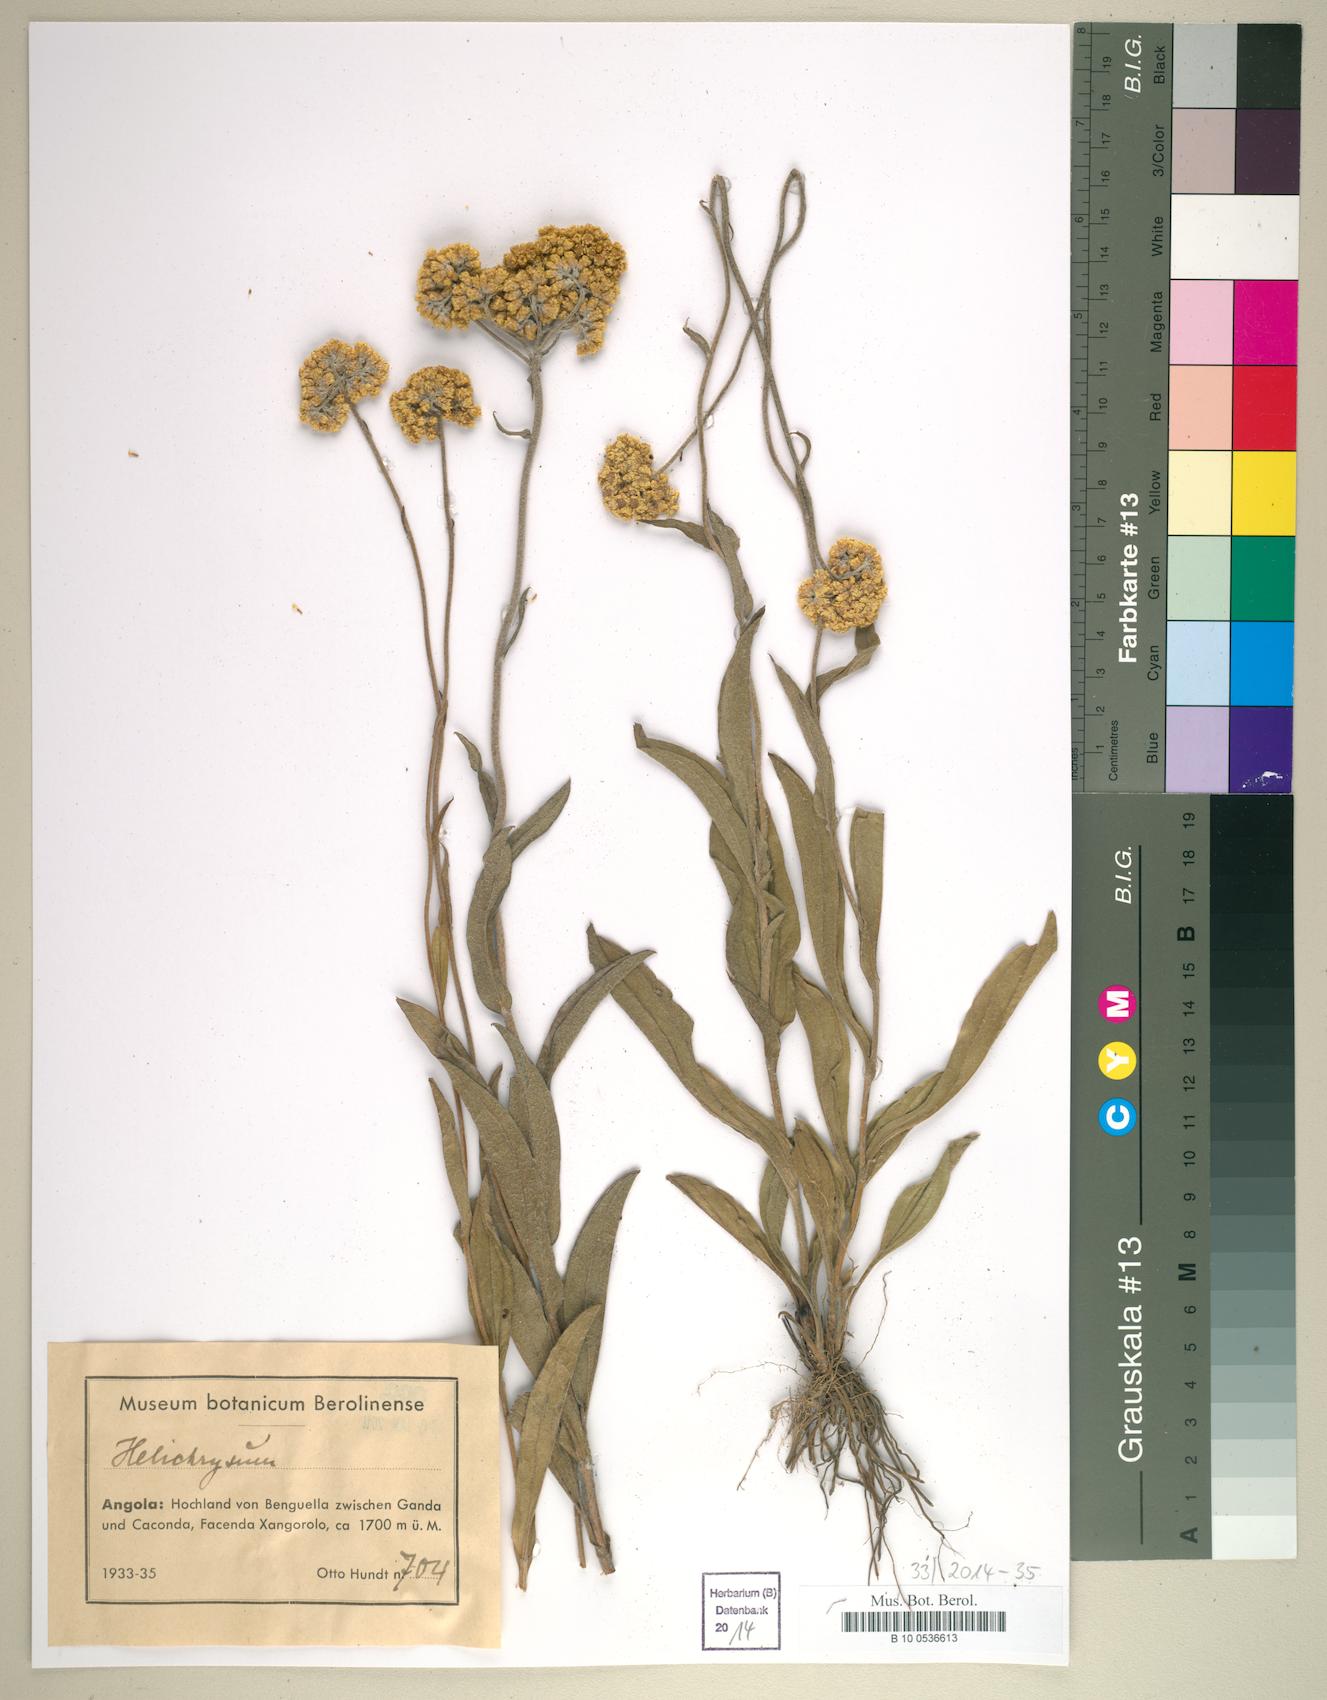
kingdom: Plantae
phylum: Tracheophyta
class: Magnoliopsida
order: Asterales
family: Asteraceae
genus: Helichrysum
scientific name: Helichrysum
